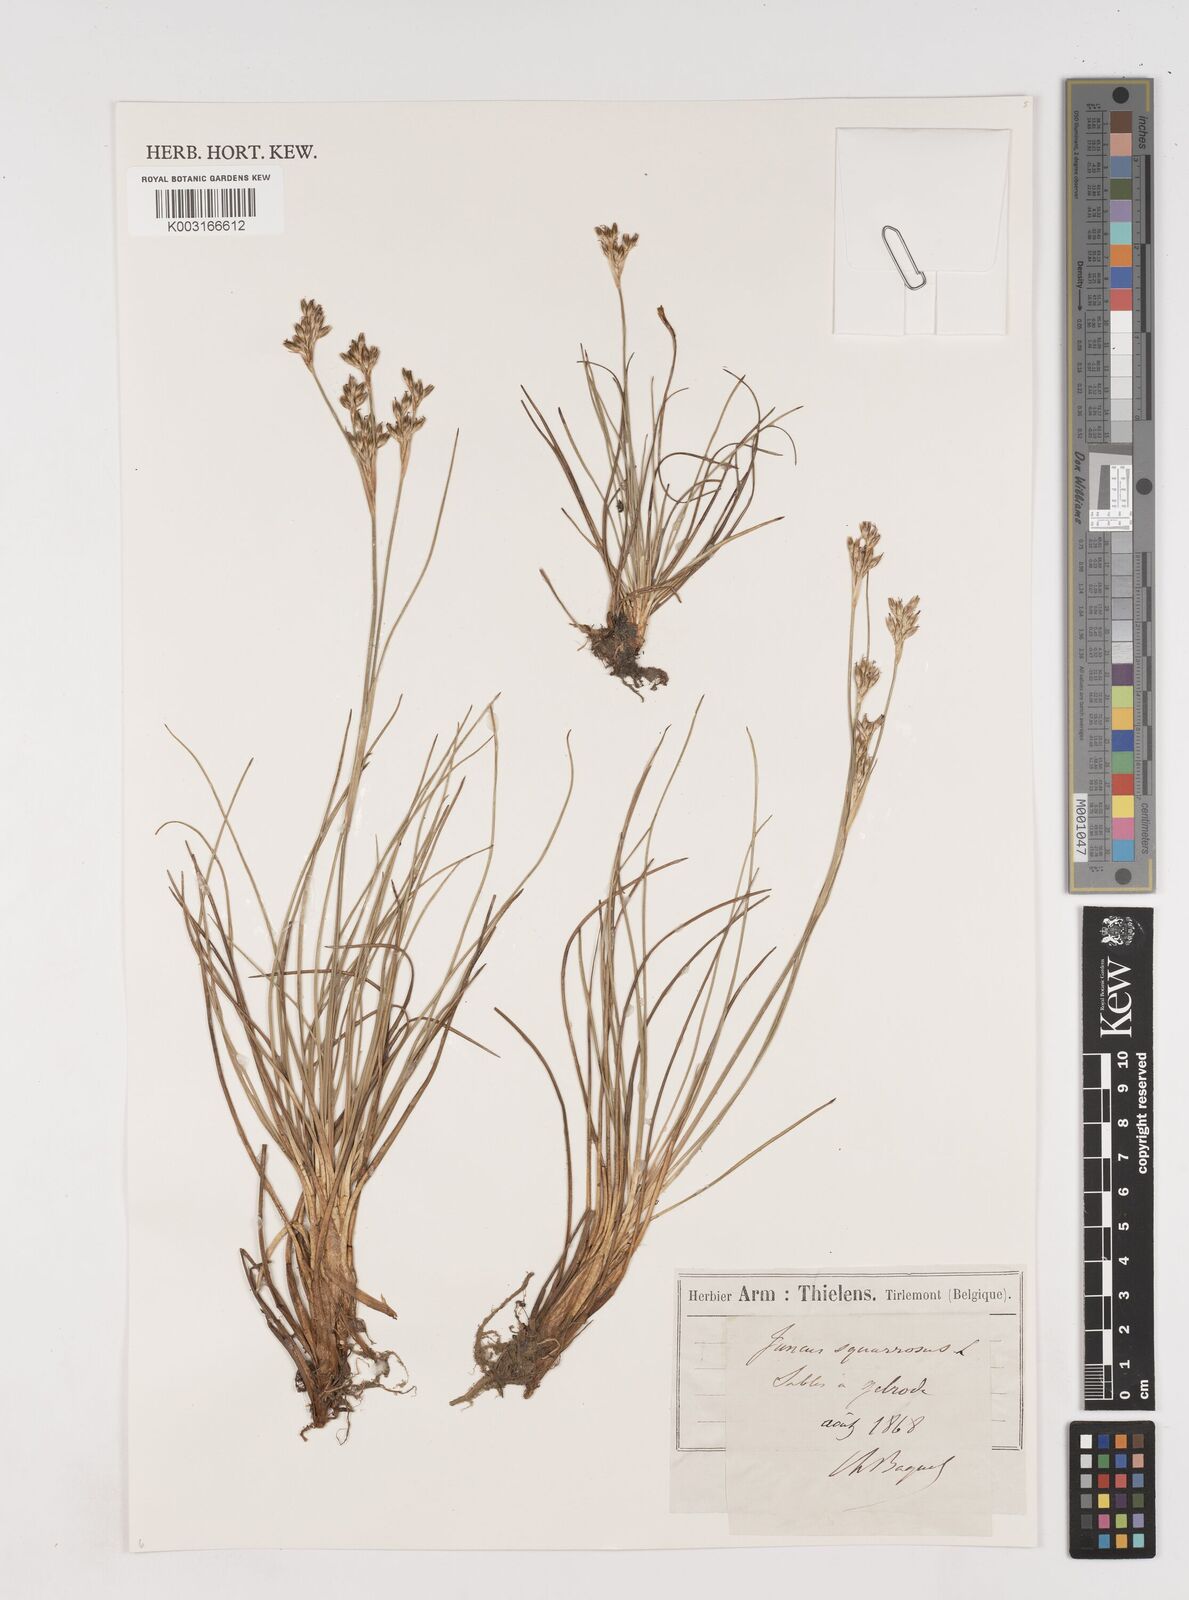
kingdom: Plantae
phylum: Tracheophyta
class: Liliopsida
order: Poales
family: Juncaceae
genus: Juncus
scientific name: Juncus squarrosus
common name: Heath rush
